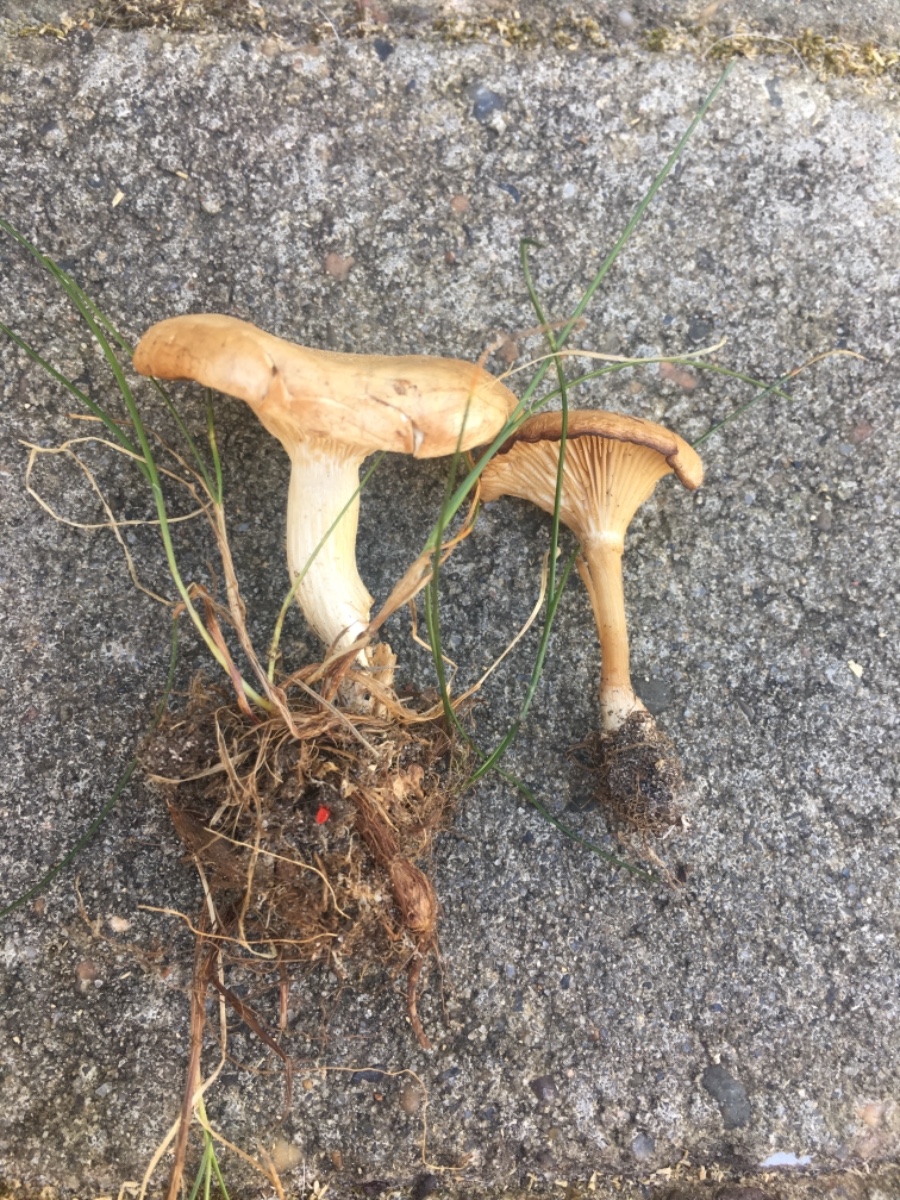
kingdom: Fungi
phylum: Basidiomycota
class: Agaricomycetes
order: Agaricales
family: Tricholomataceae
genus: Rhizocybe
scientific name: Rhizocybe vermicularis
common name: hyfestrengs-tragthat
